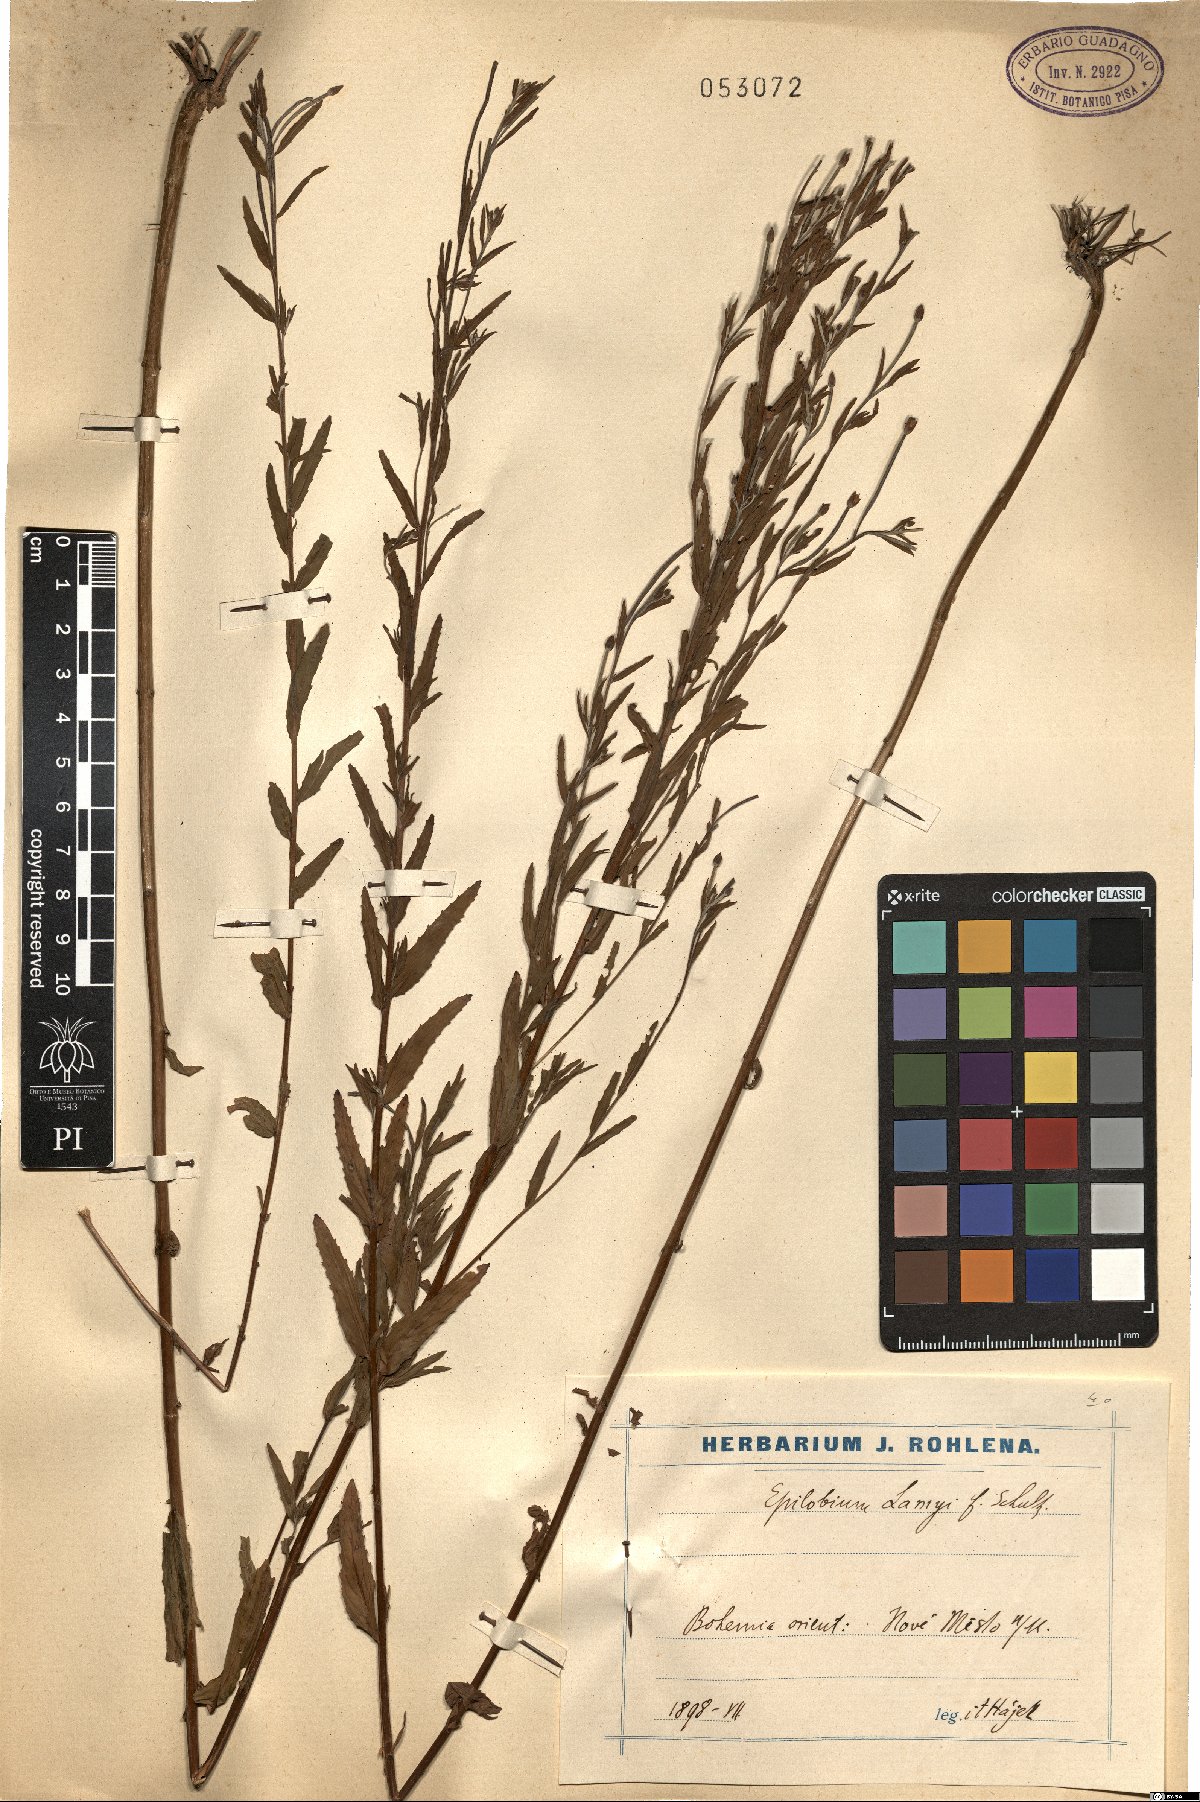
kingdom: Plantae
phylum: Tracheophyta
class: Magnoliopsida
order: Myrtales
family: Onagraceae
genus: Epilobium
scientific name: Epilobium lamyi
